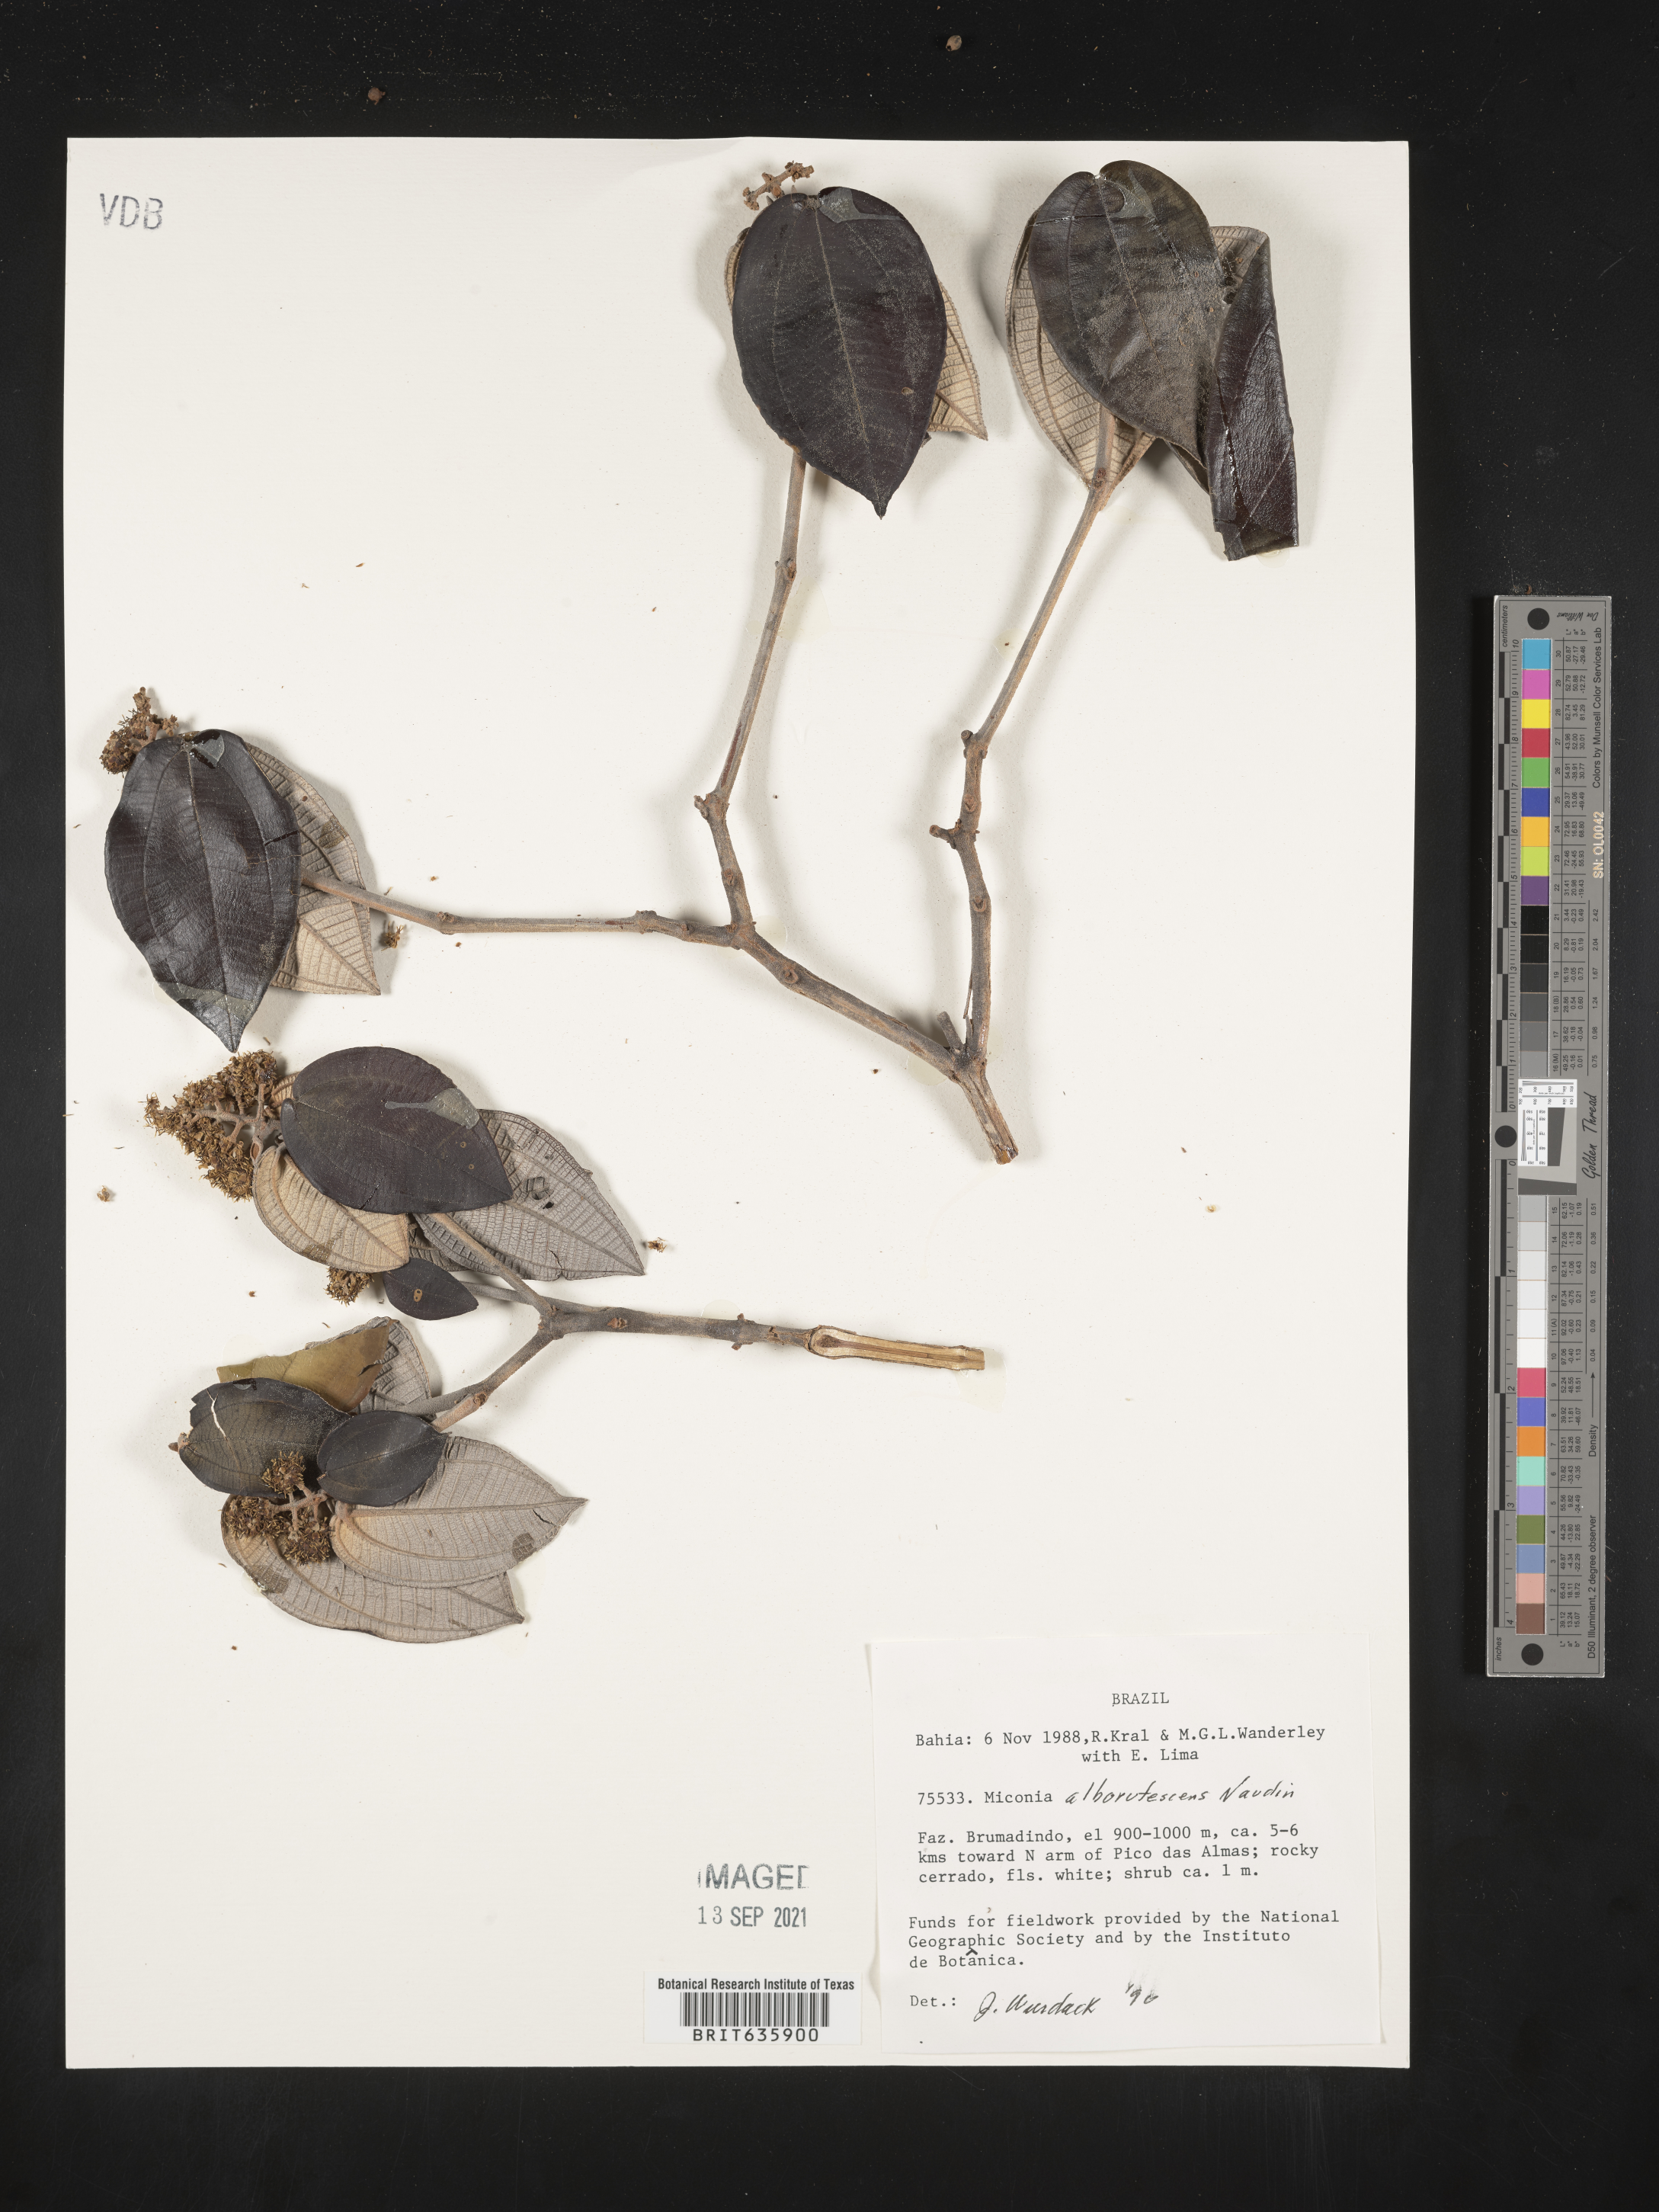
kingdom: Plantae
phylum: Tracheophyta
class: Magnoliopsida
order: Myrtales
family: Melastomataceae
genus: Miconia
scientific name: Miconia
